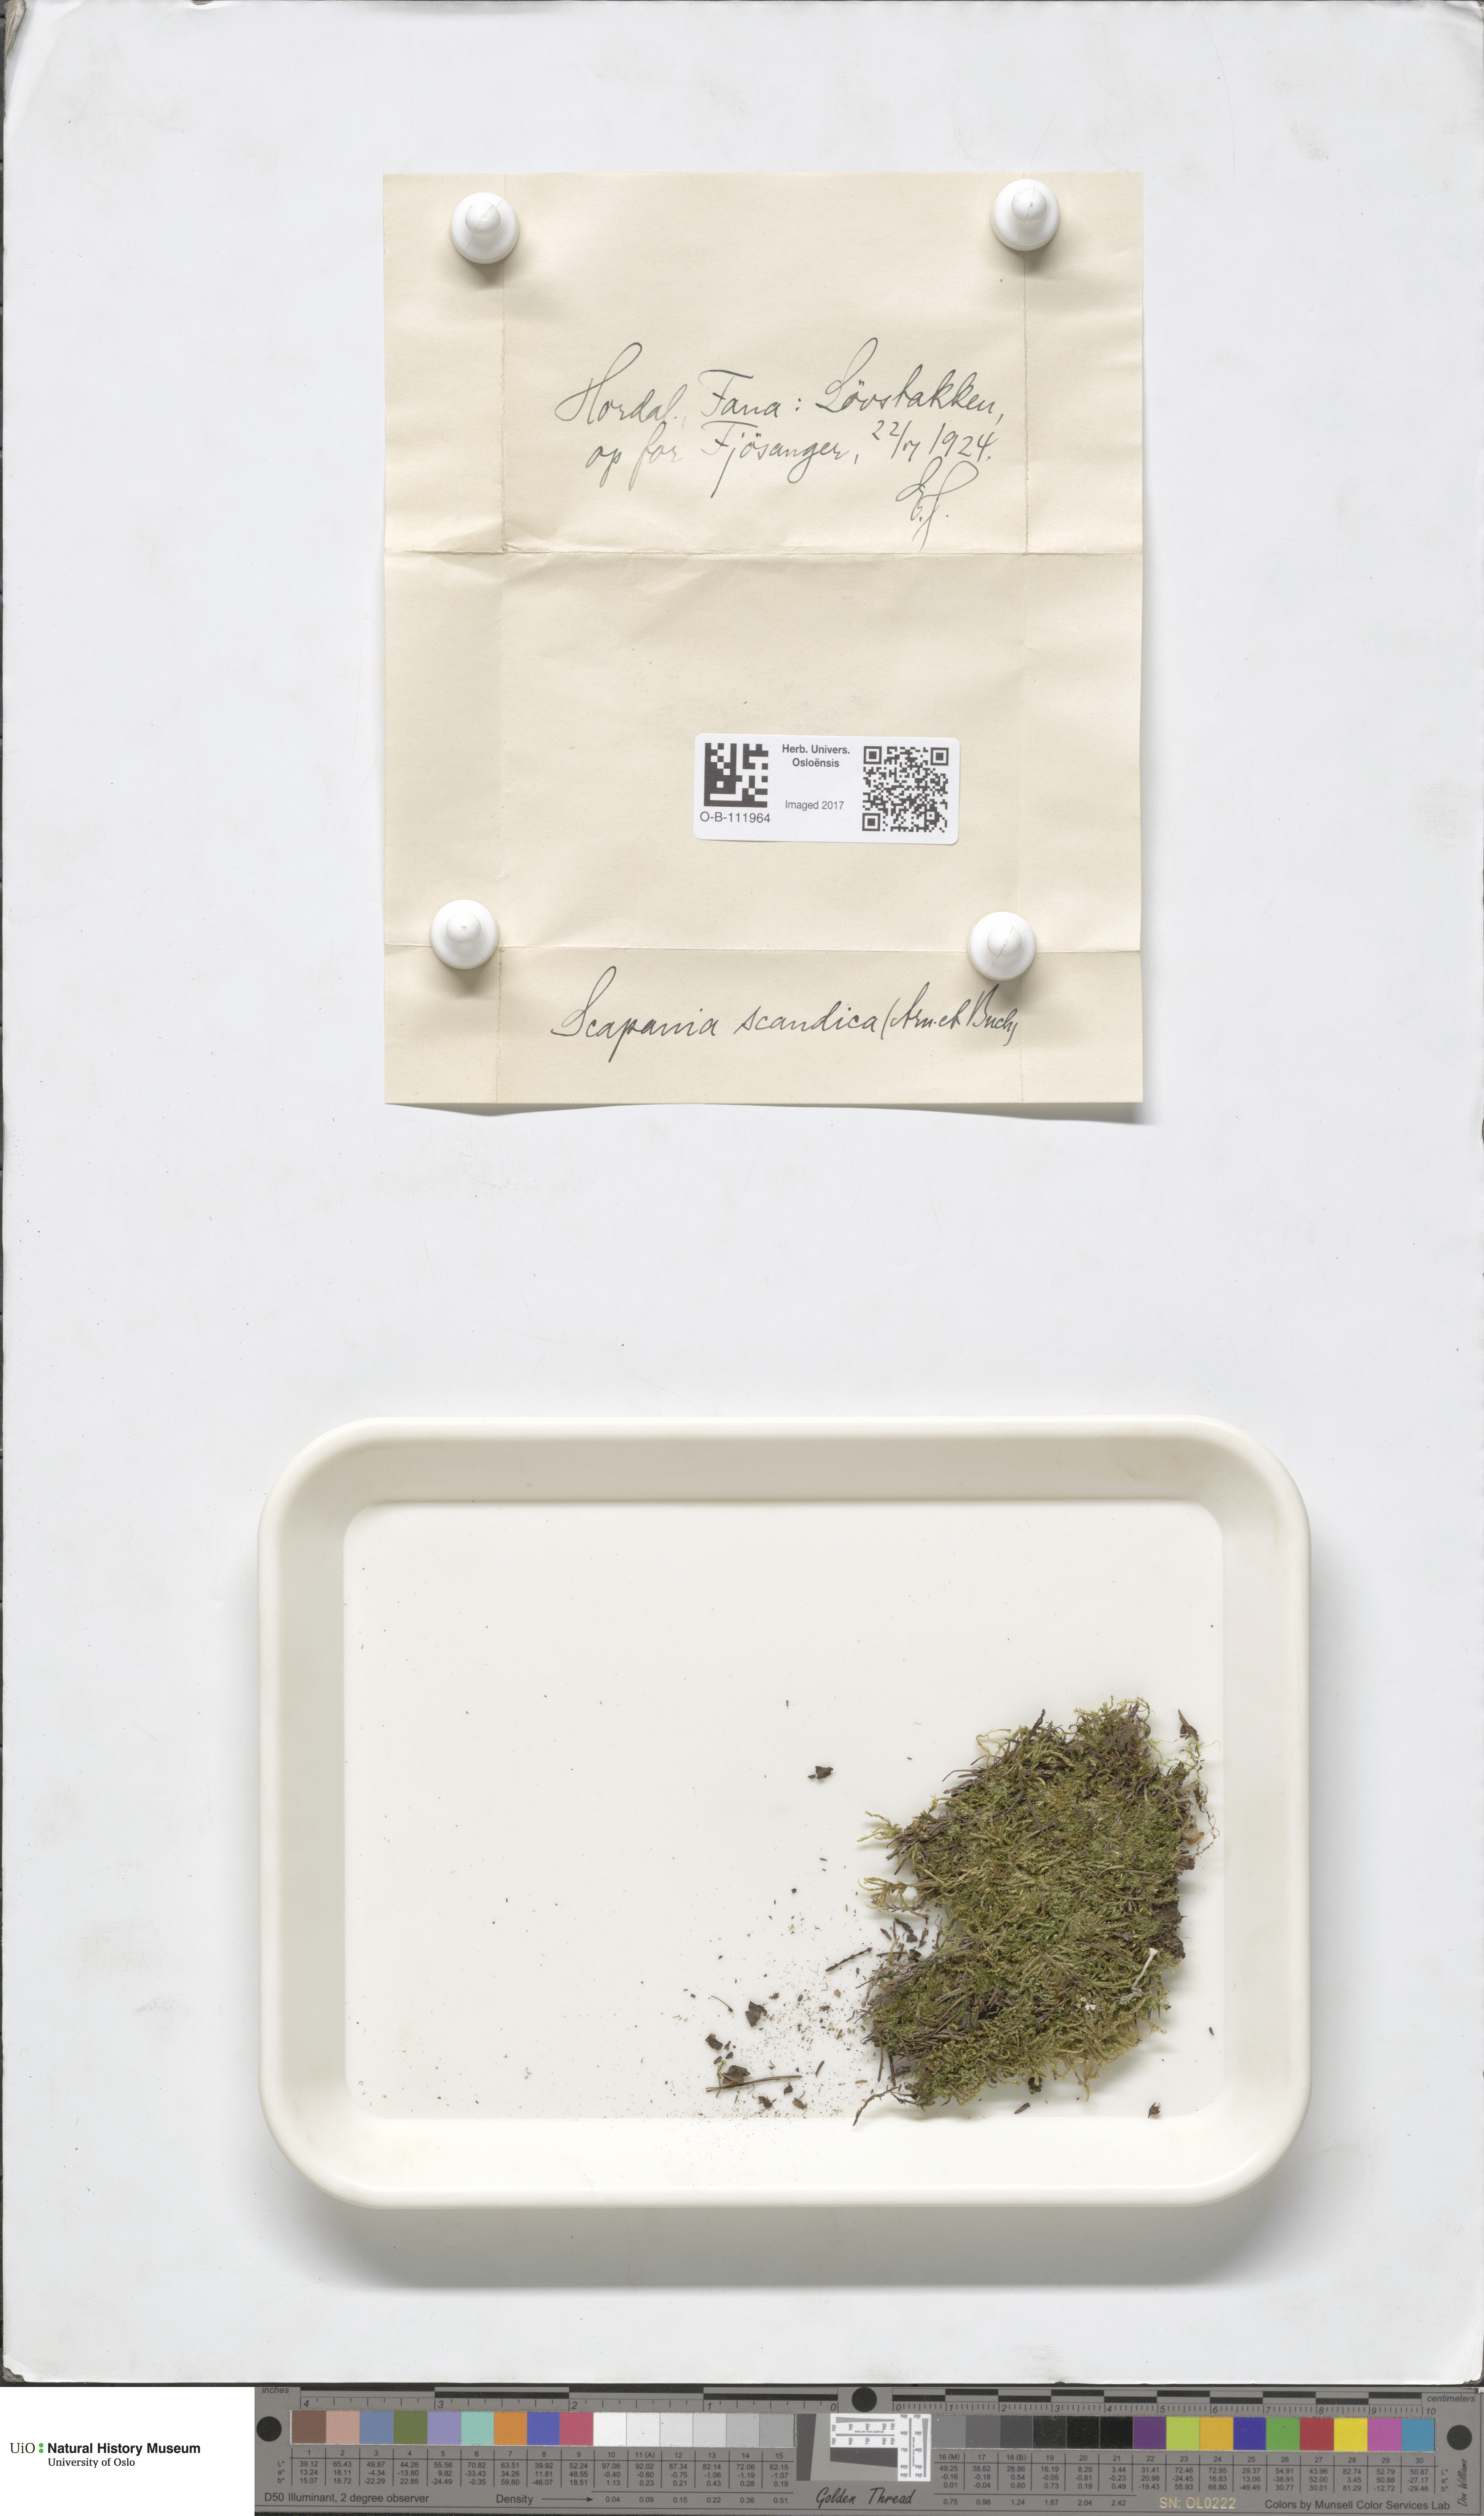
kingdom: Plantae
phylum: Marchantiophyta
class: Jungermanniopsida
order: Jungermanniales
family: Scapaniaceae
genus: Scapania
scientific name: Scapania scandica
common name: Norwegian earwort
